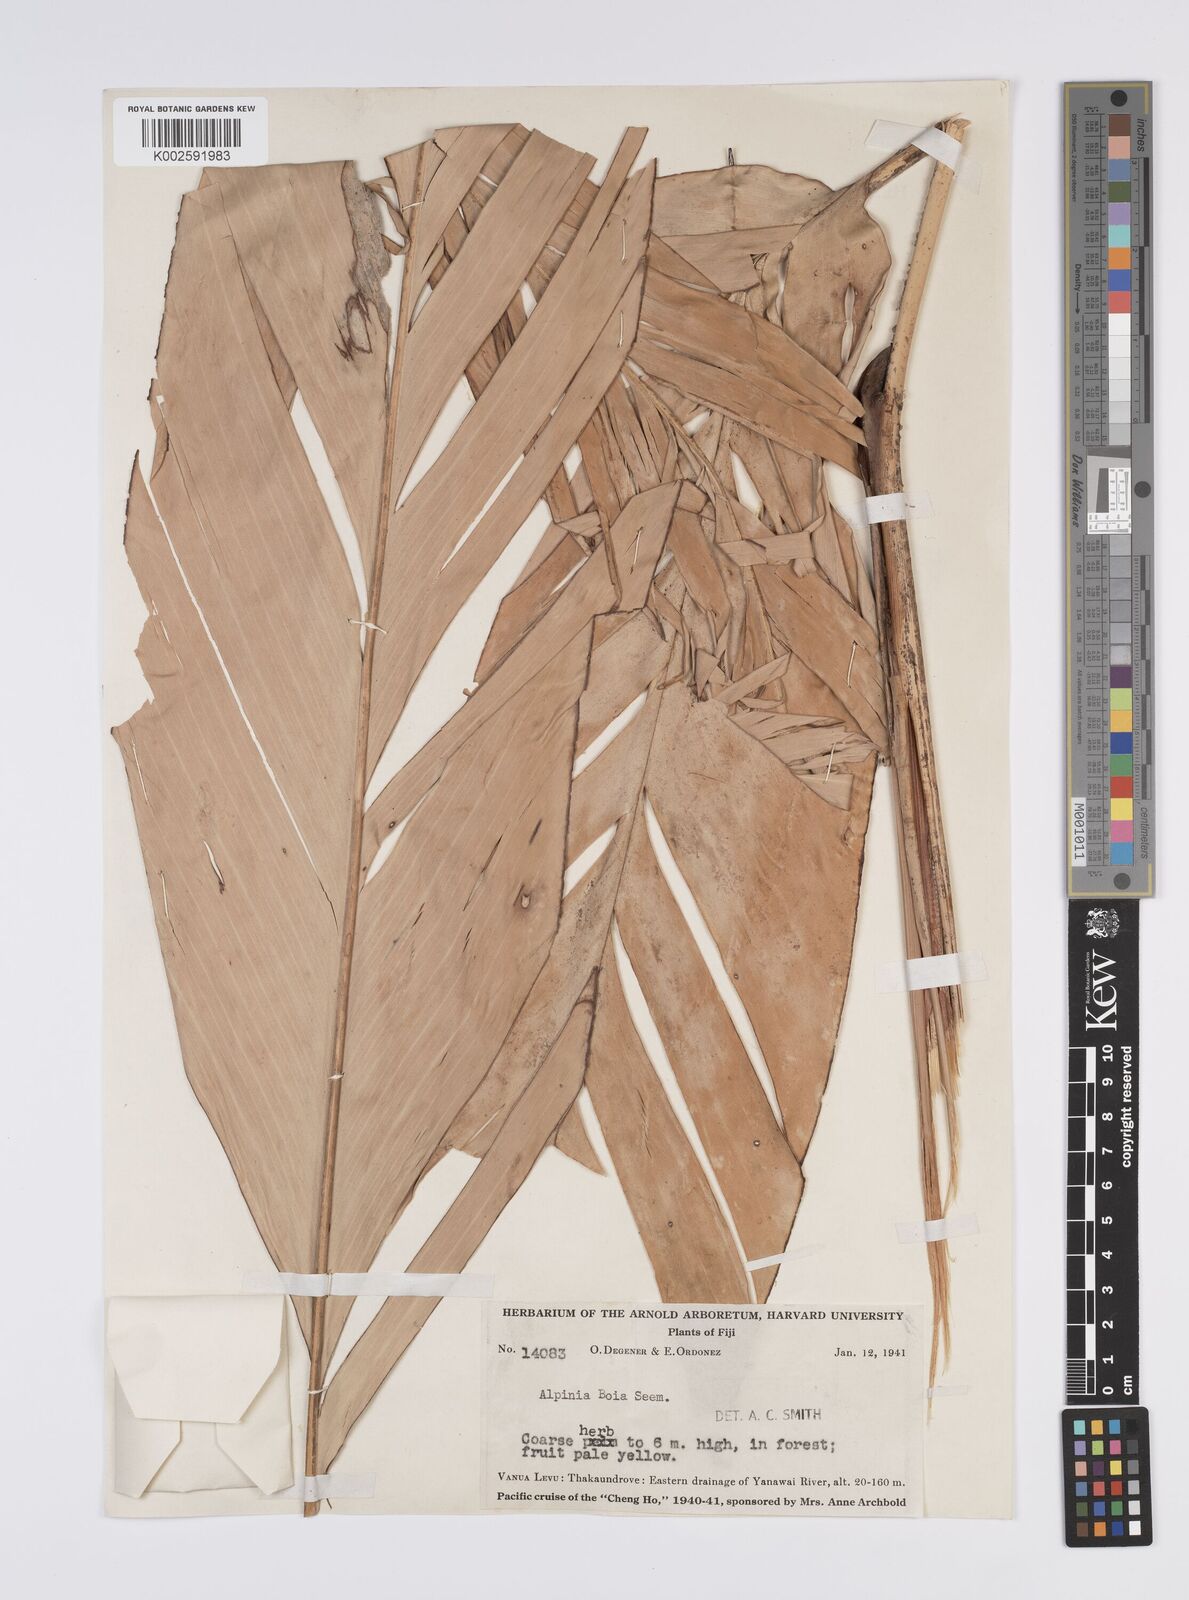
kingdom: Plantae
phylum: Tracheophyta
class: Liliopsida
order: Zingiberales
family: Zingiberaceae
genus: Alpinia
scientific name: Alpinia boia
